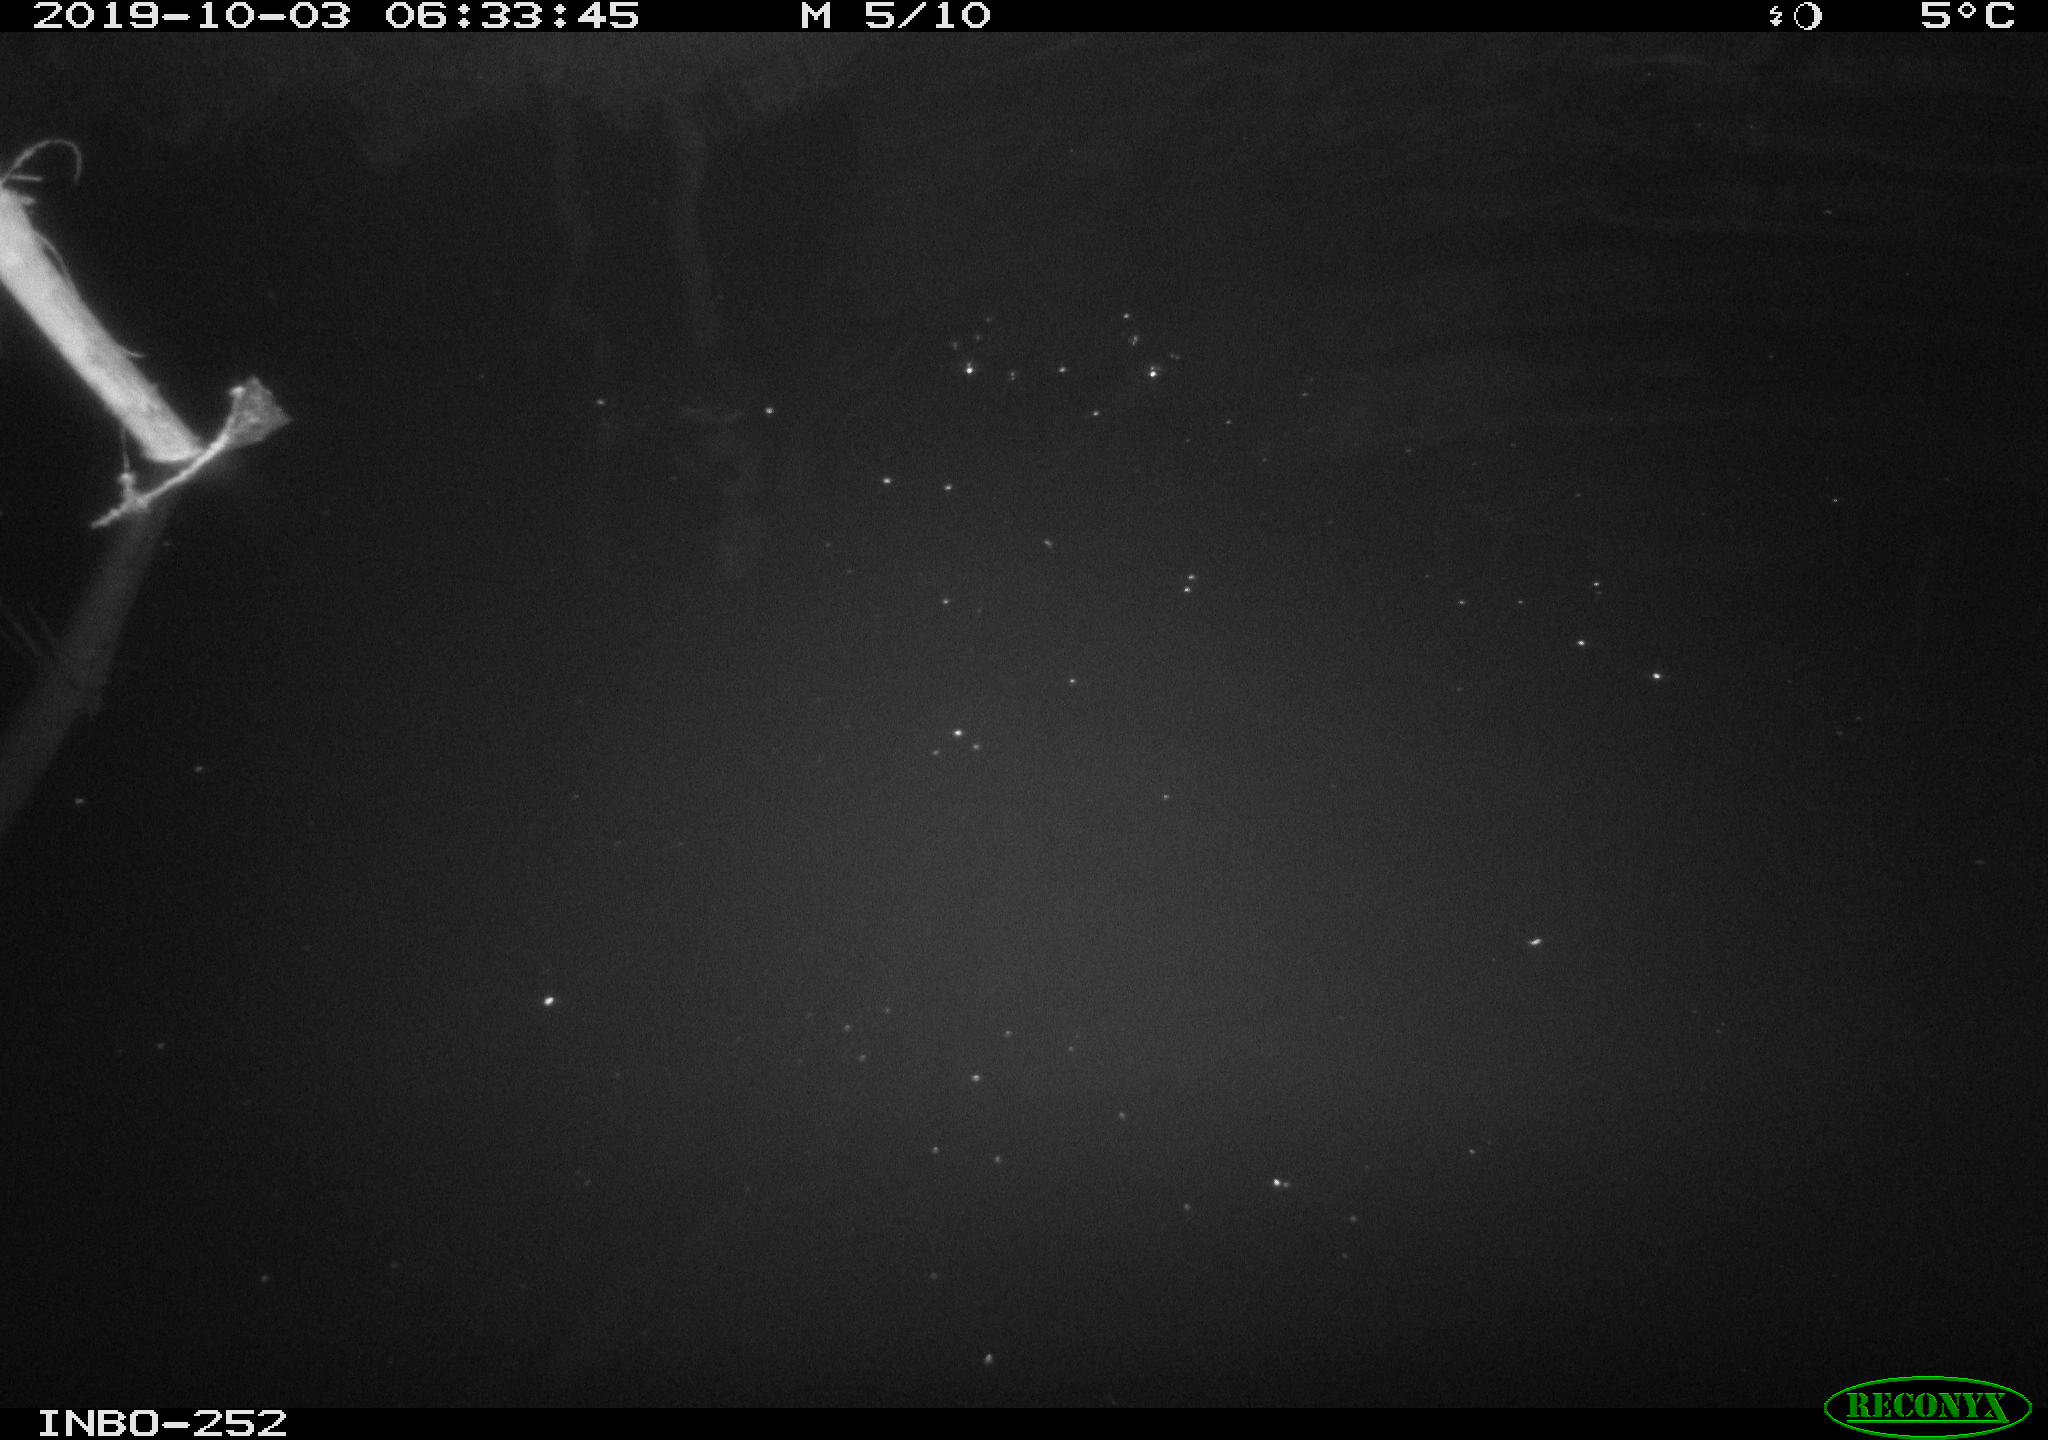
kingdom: Animalia
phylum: Chordata
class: Aves
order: Anseriformes
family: Anatidae
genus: Anas
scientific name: Anas platyrhynchos
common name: Mallard
